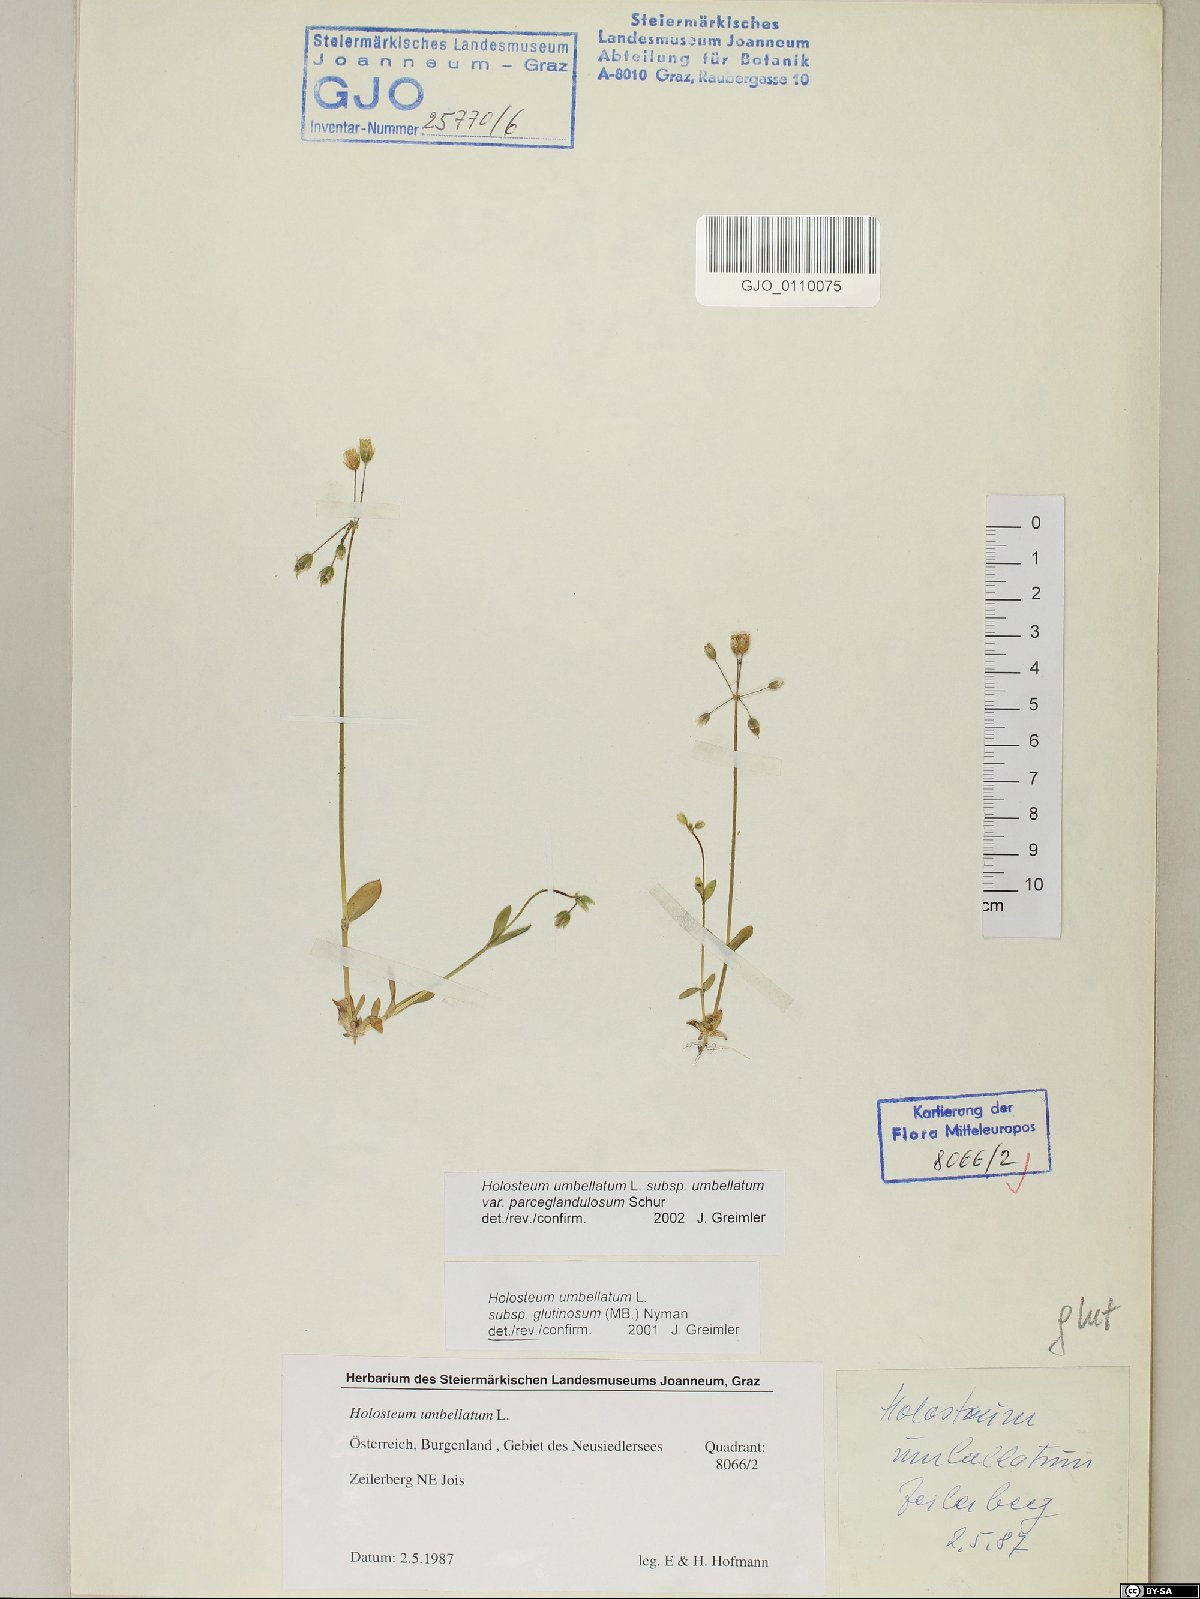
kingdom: Plantae
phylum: Tracheophyta
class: Magnoliopsida
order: Caryophyllales
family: Caryophyllaceae
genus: Holosteum
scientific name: Holosteum umbellatum
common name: Jagged chickweed
